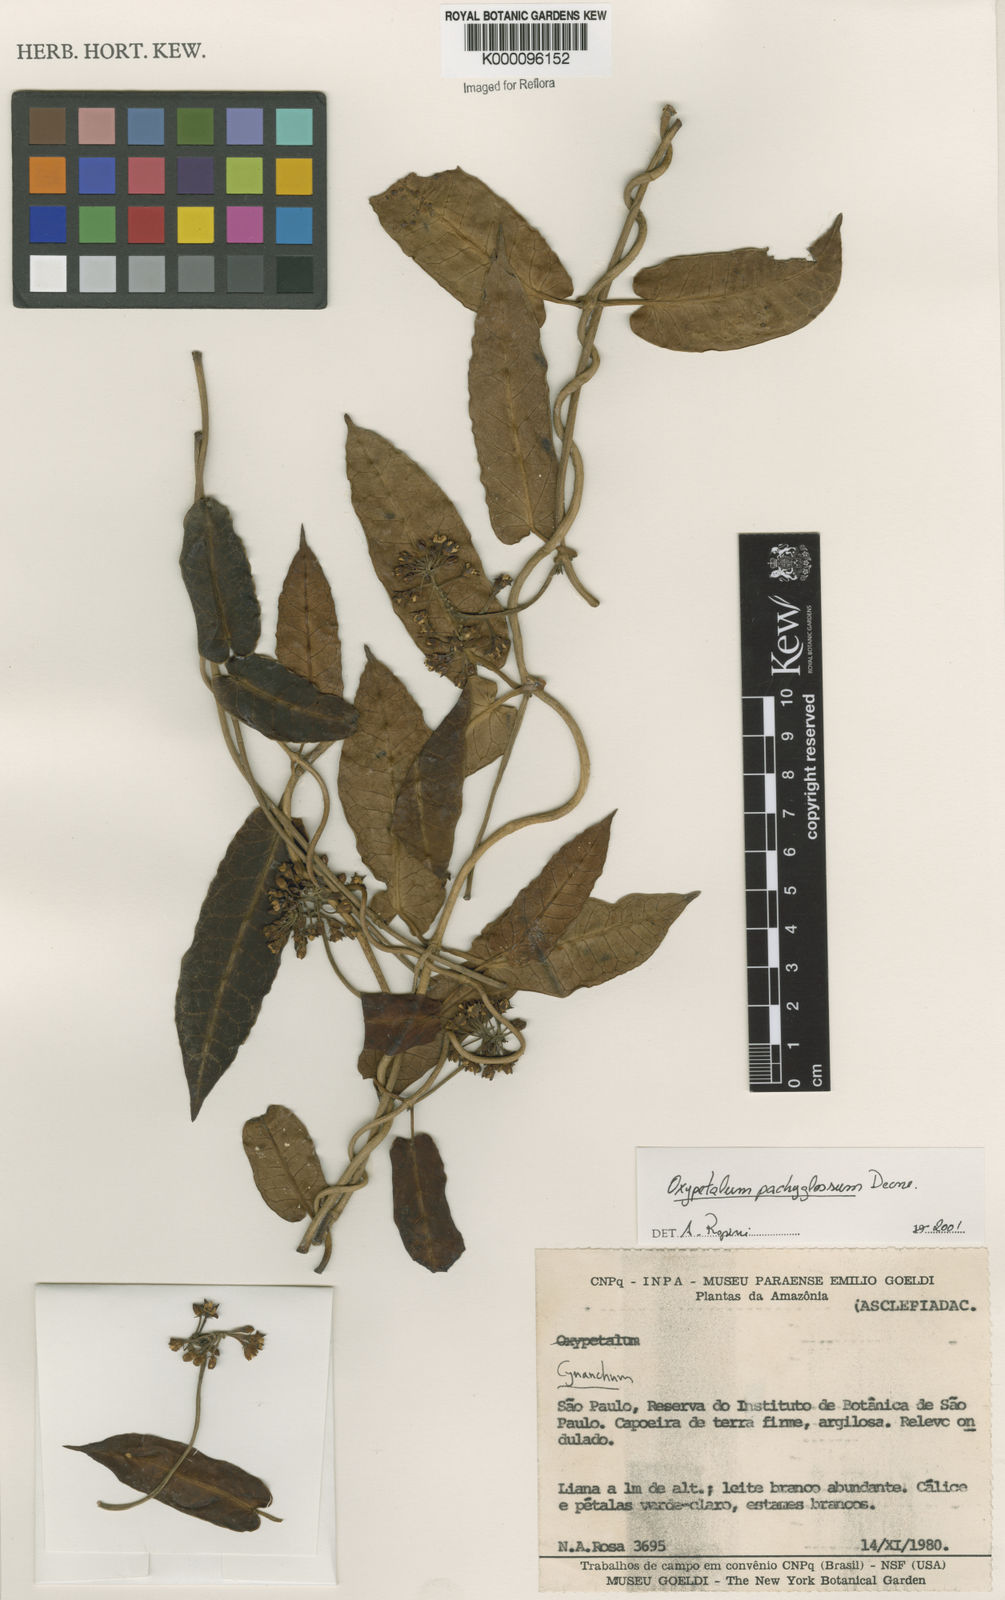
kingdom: Plantae
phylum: Tracheophyta
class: Magnoliopsida
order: Gentianales
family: Apocynaceae
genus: Oxypetalum
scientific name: Oxypetalum pachyglossum
